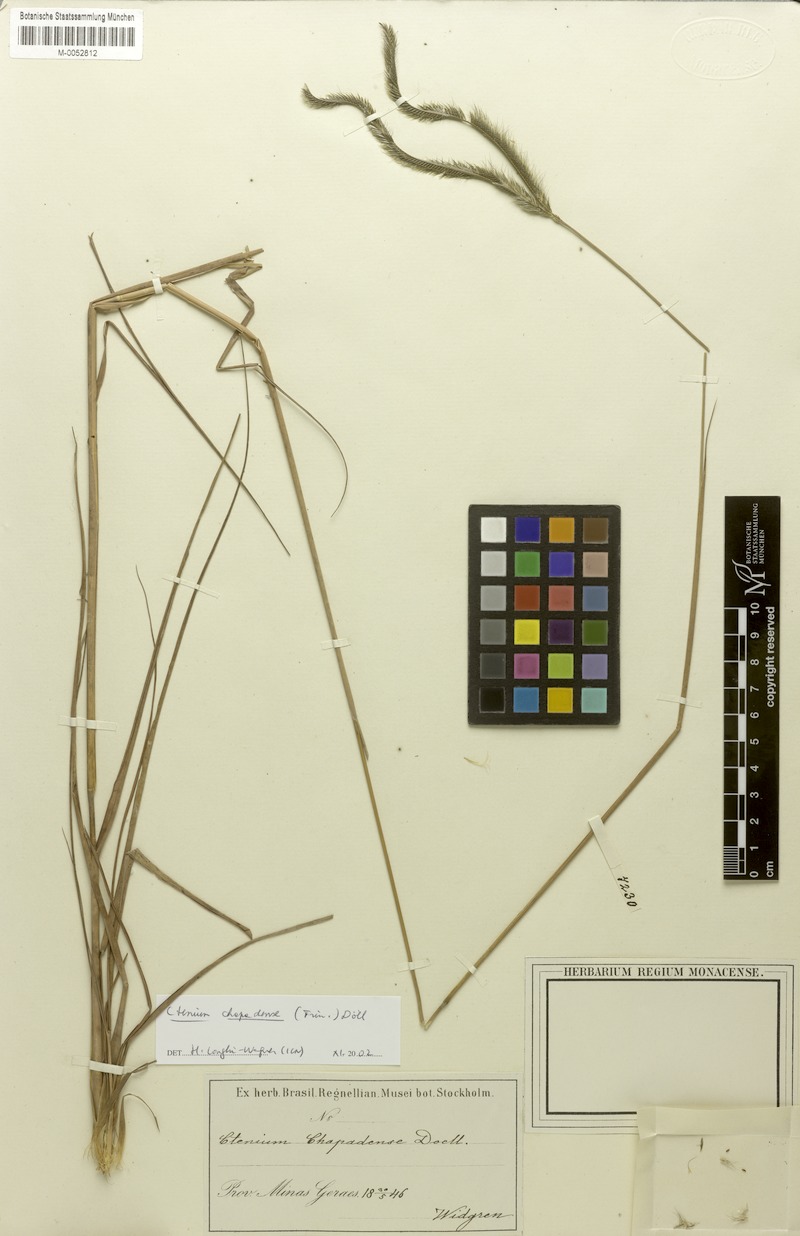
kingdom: Plantae
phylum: Tracheophyta
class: Liliopsida
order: Poales
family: Poaceae
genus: Ctenium
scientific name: Ctenium chapadense
